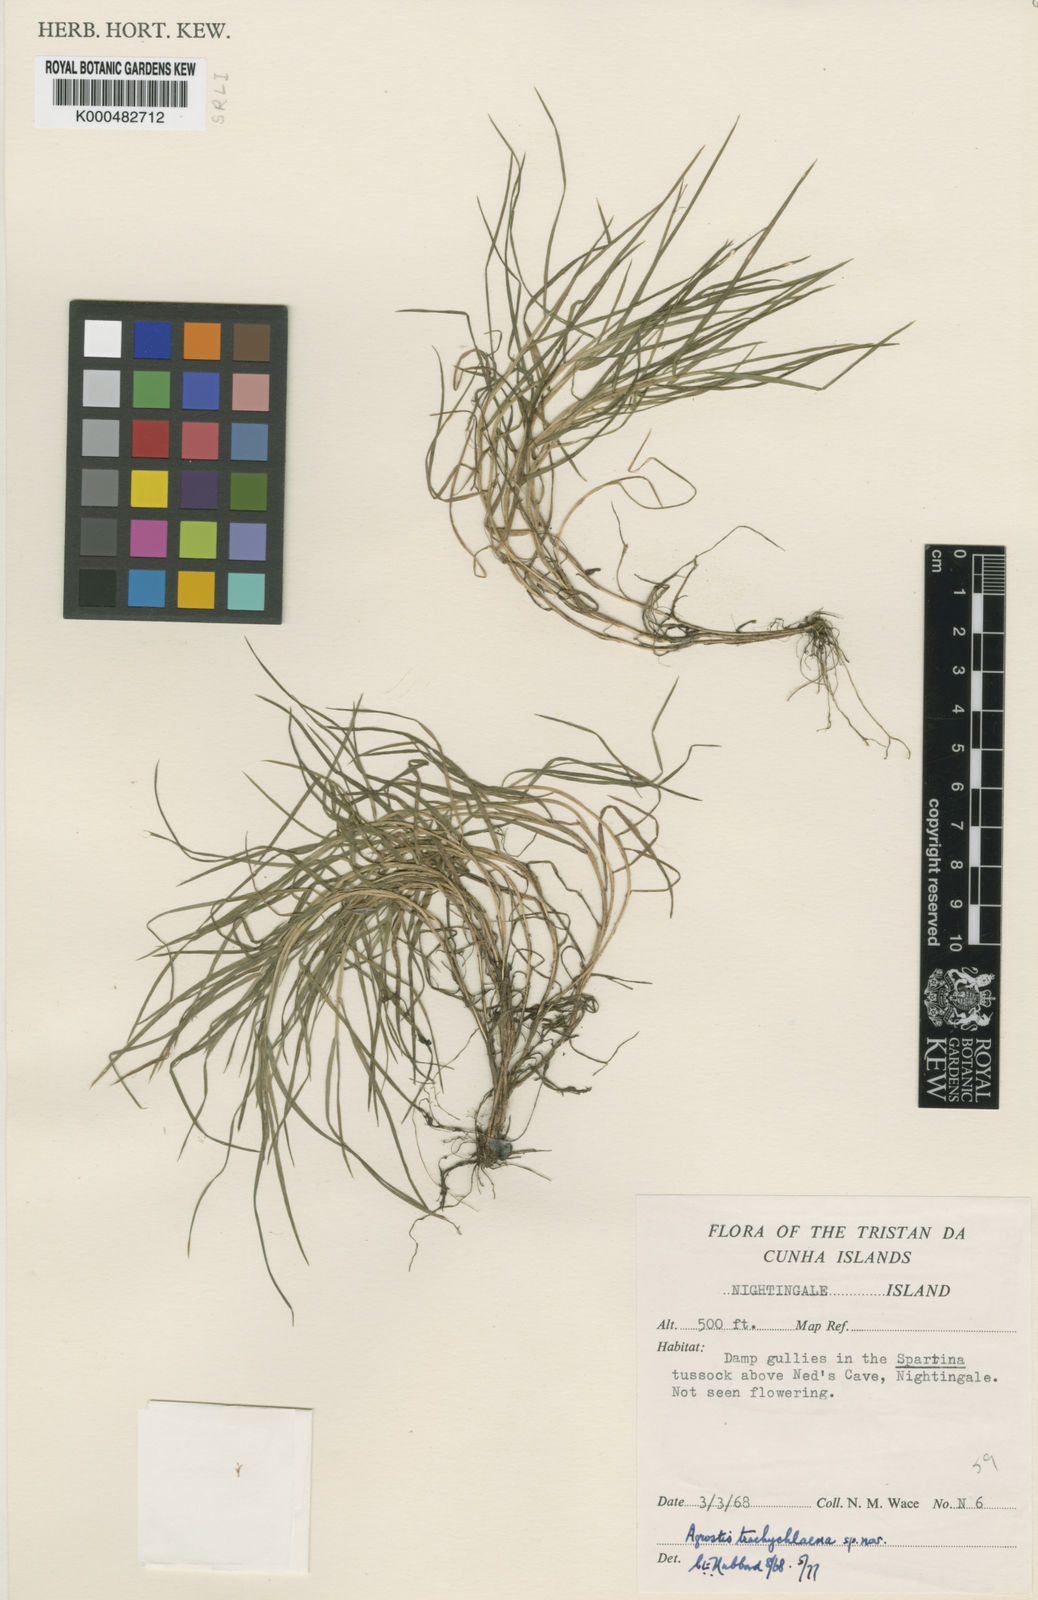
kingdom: Plantae
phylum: Tracheophyta
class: Liliopsida
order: Poales
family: Poaceae
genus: Agrostis
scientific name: Agrostis trachychlaena
